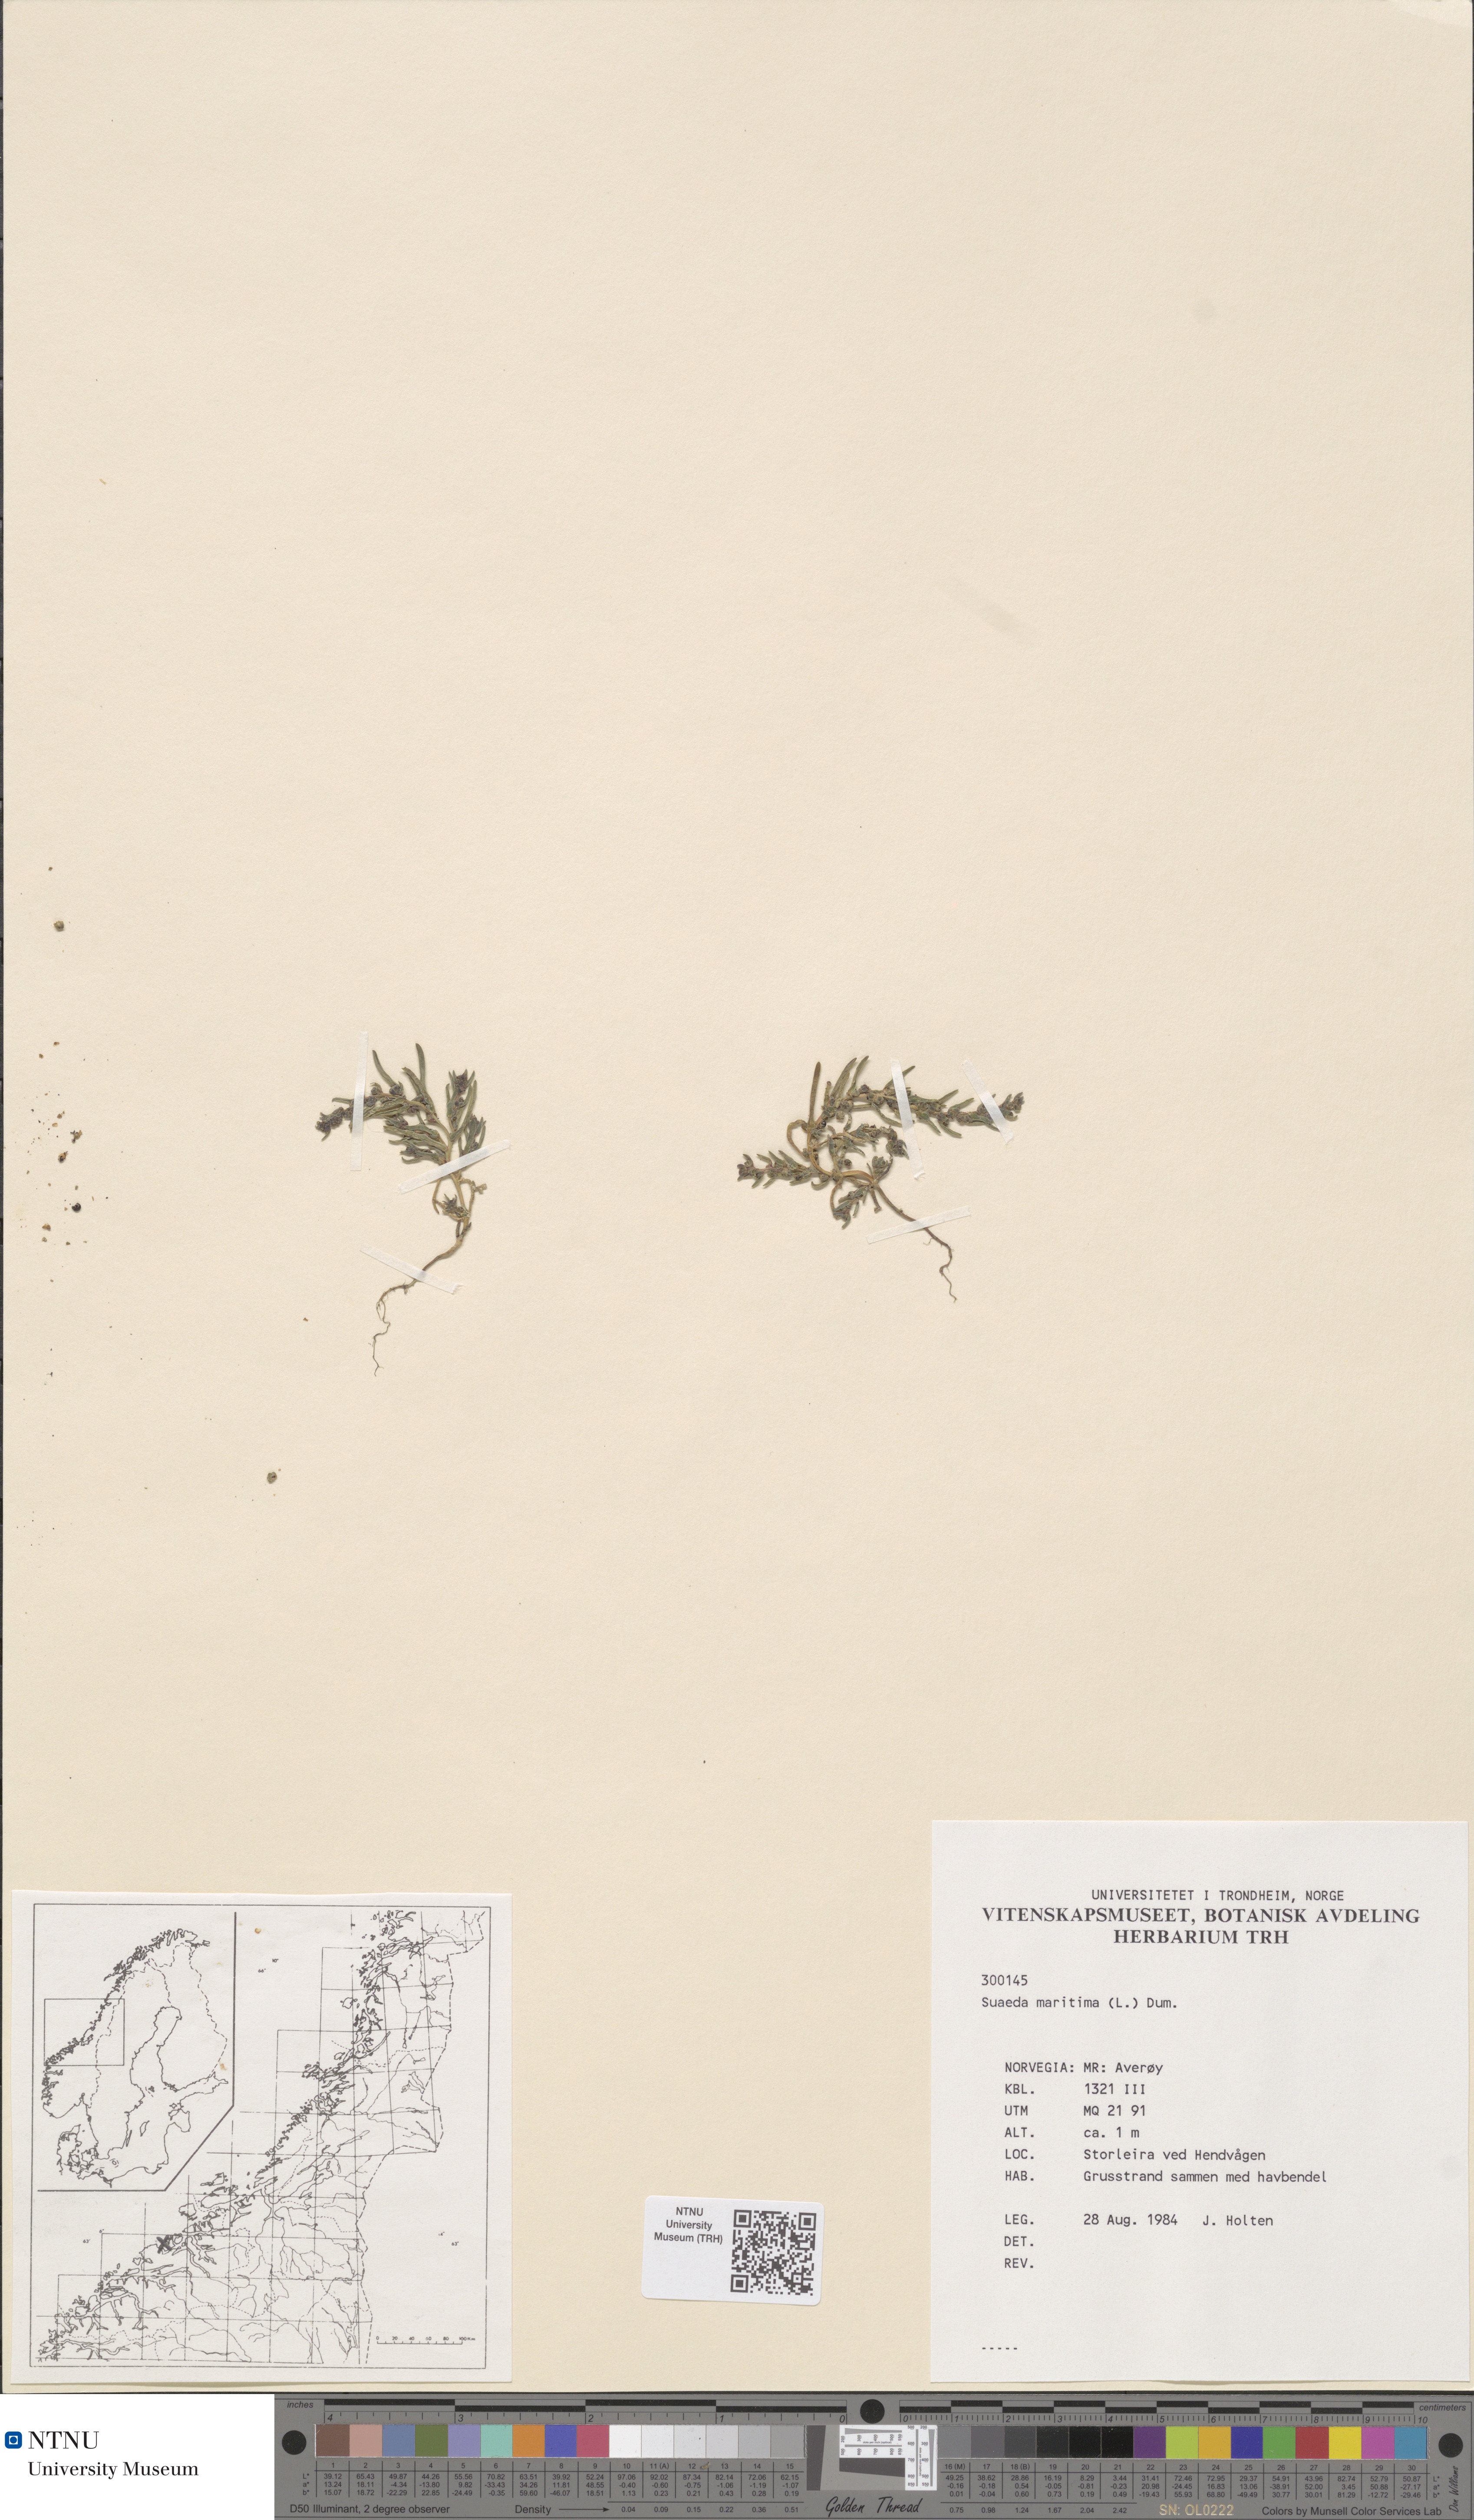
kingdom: Plantae
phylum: Tracheophyta
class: Magnoliopsida
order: Caryophyllales
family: Amaranthaceae
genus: Suaeda
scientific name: Suaeda maritima
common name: Annual sea-blite
